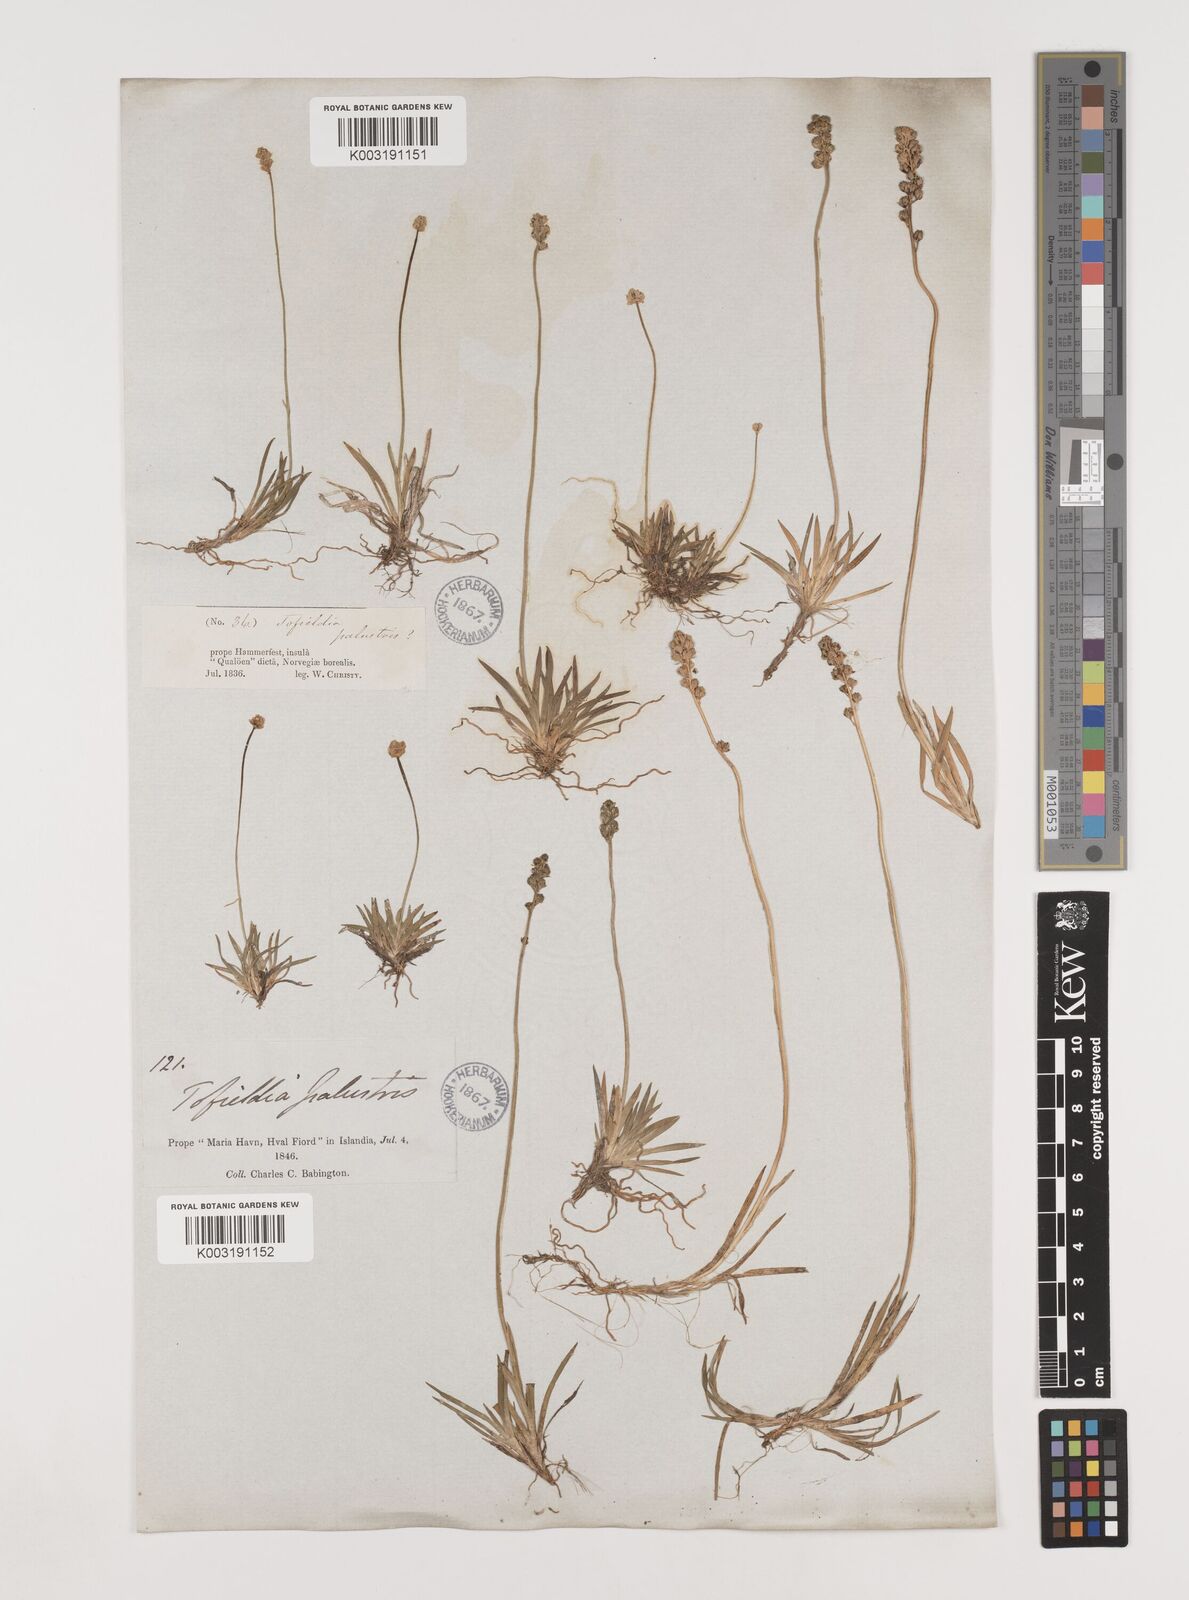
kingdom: Plantae
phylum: Tracheophyta
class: Liliopsida
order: Alismatales
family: Tofieldiaceae
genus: Tofieldia
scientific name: Tofieldia pusilla
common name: Scottish false asphodel
